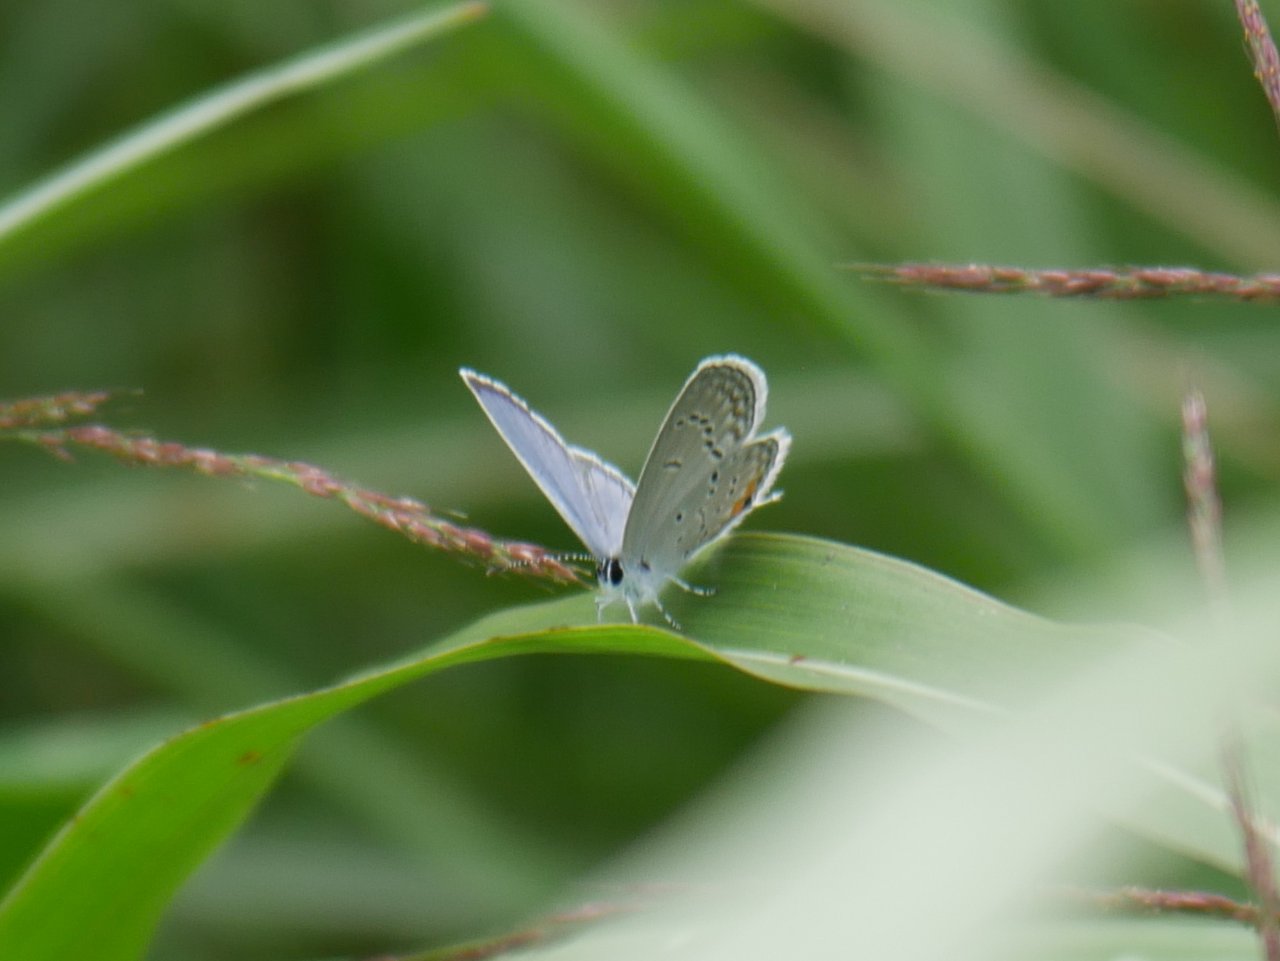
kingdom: Animalia
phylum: Arthropoda
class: Insecta
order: Lepidoptera
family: Lycaenidae
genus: Elkalyce
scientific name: Elkalyce comyntas
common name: Eastern Tailed-Blue
